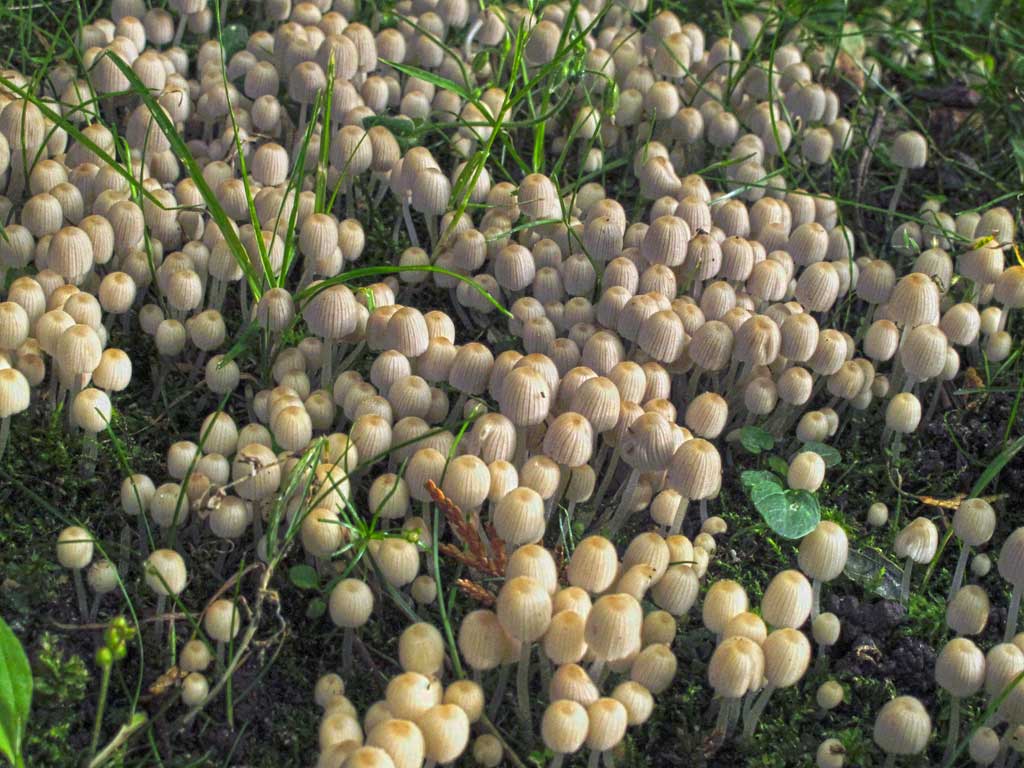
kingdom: Fungi
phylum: Basidiomycota
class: Agaricomycetes
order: Agaricales
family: Psathyrellaceae
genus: Coprinellus
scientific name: Coprinellus disseminatus
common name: bredsået blækhat
